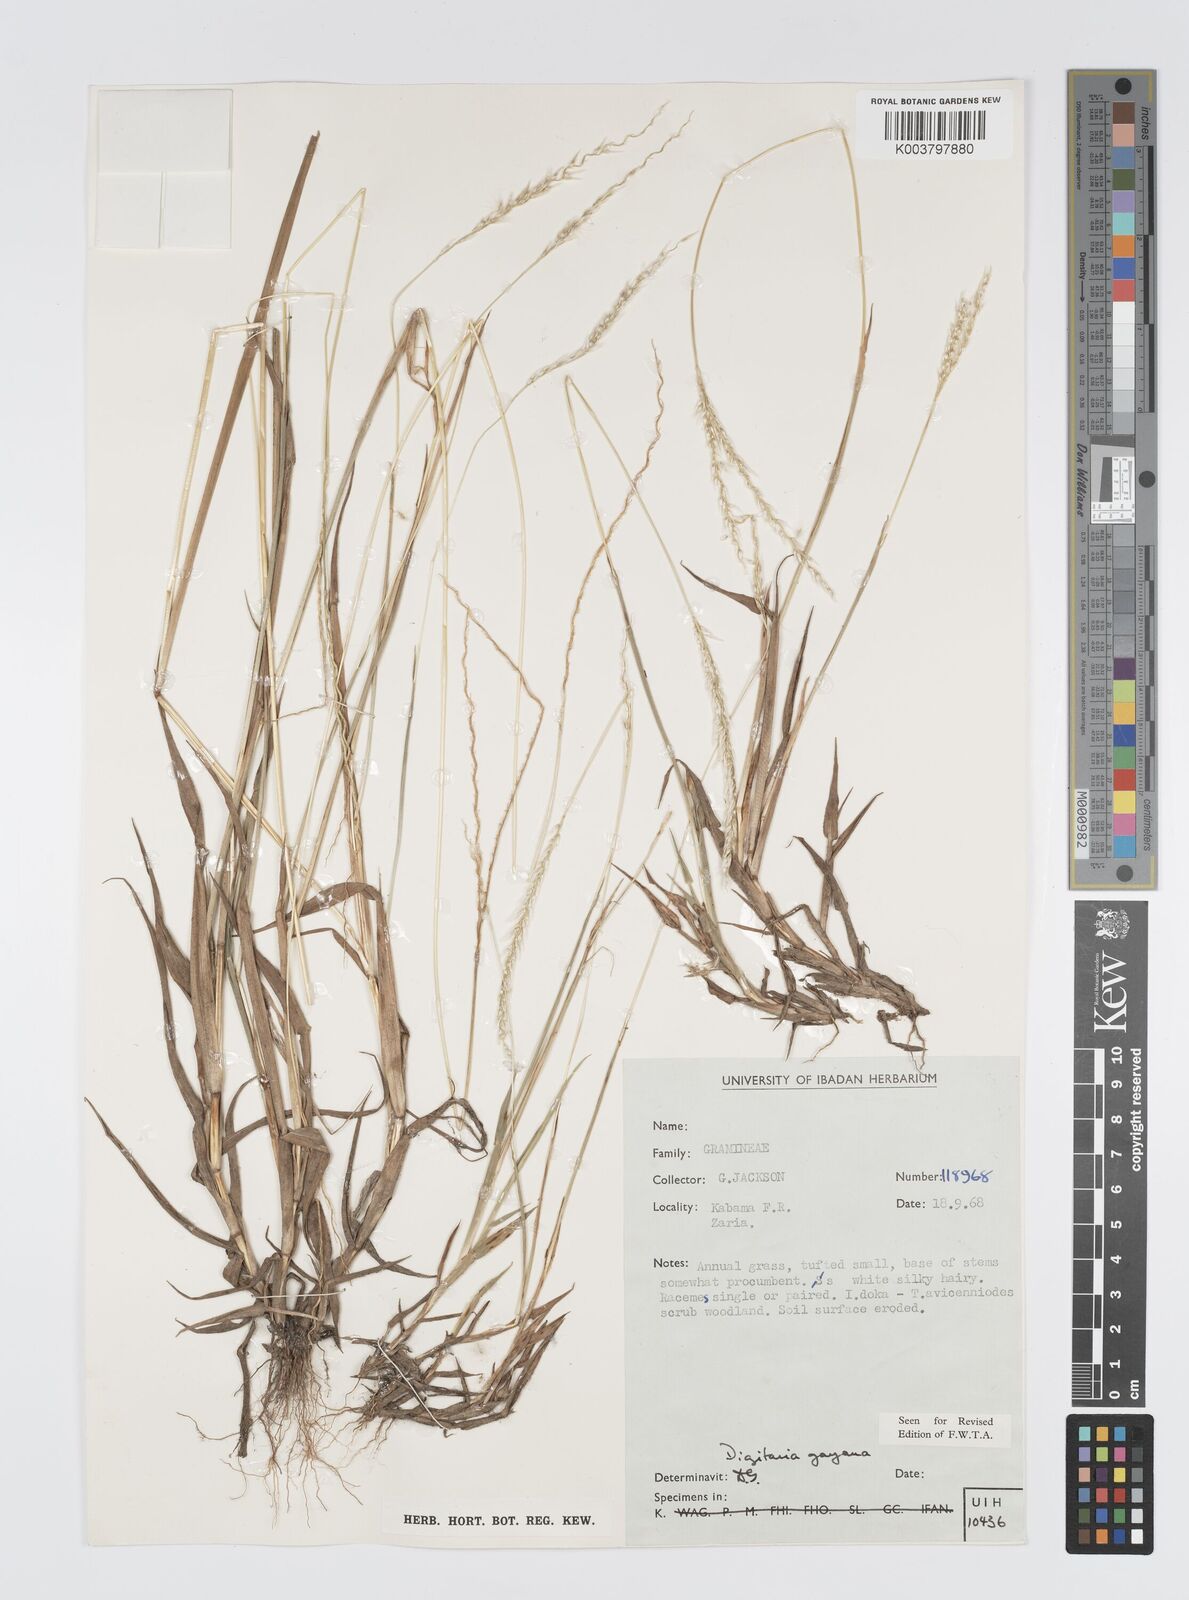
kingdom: Plantae
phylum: Tracheophyta
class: Liliopsida
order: Poales
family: Poaceae
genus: Digitaria
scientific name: Digitaria gayana
